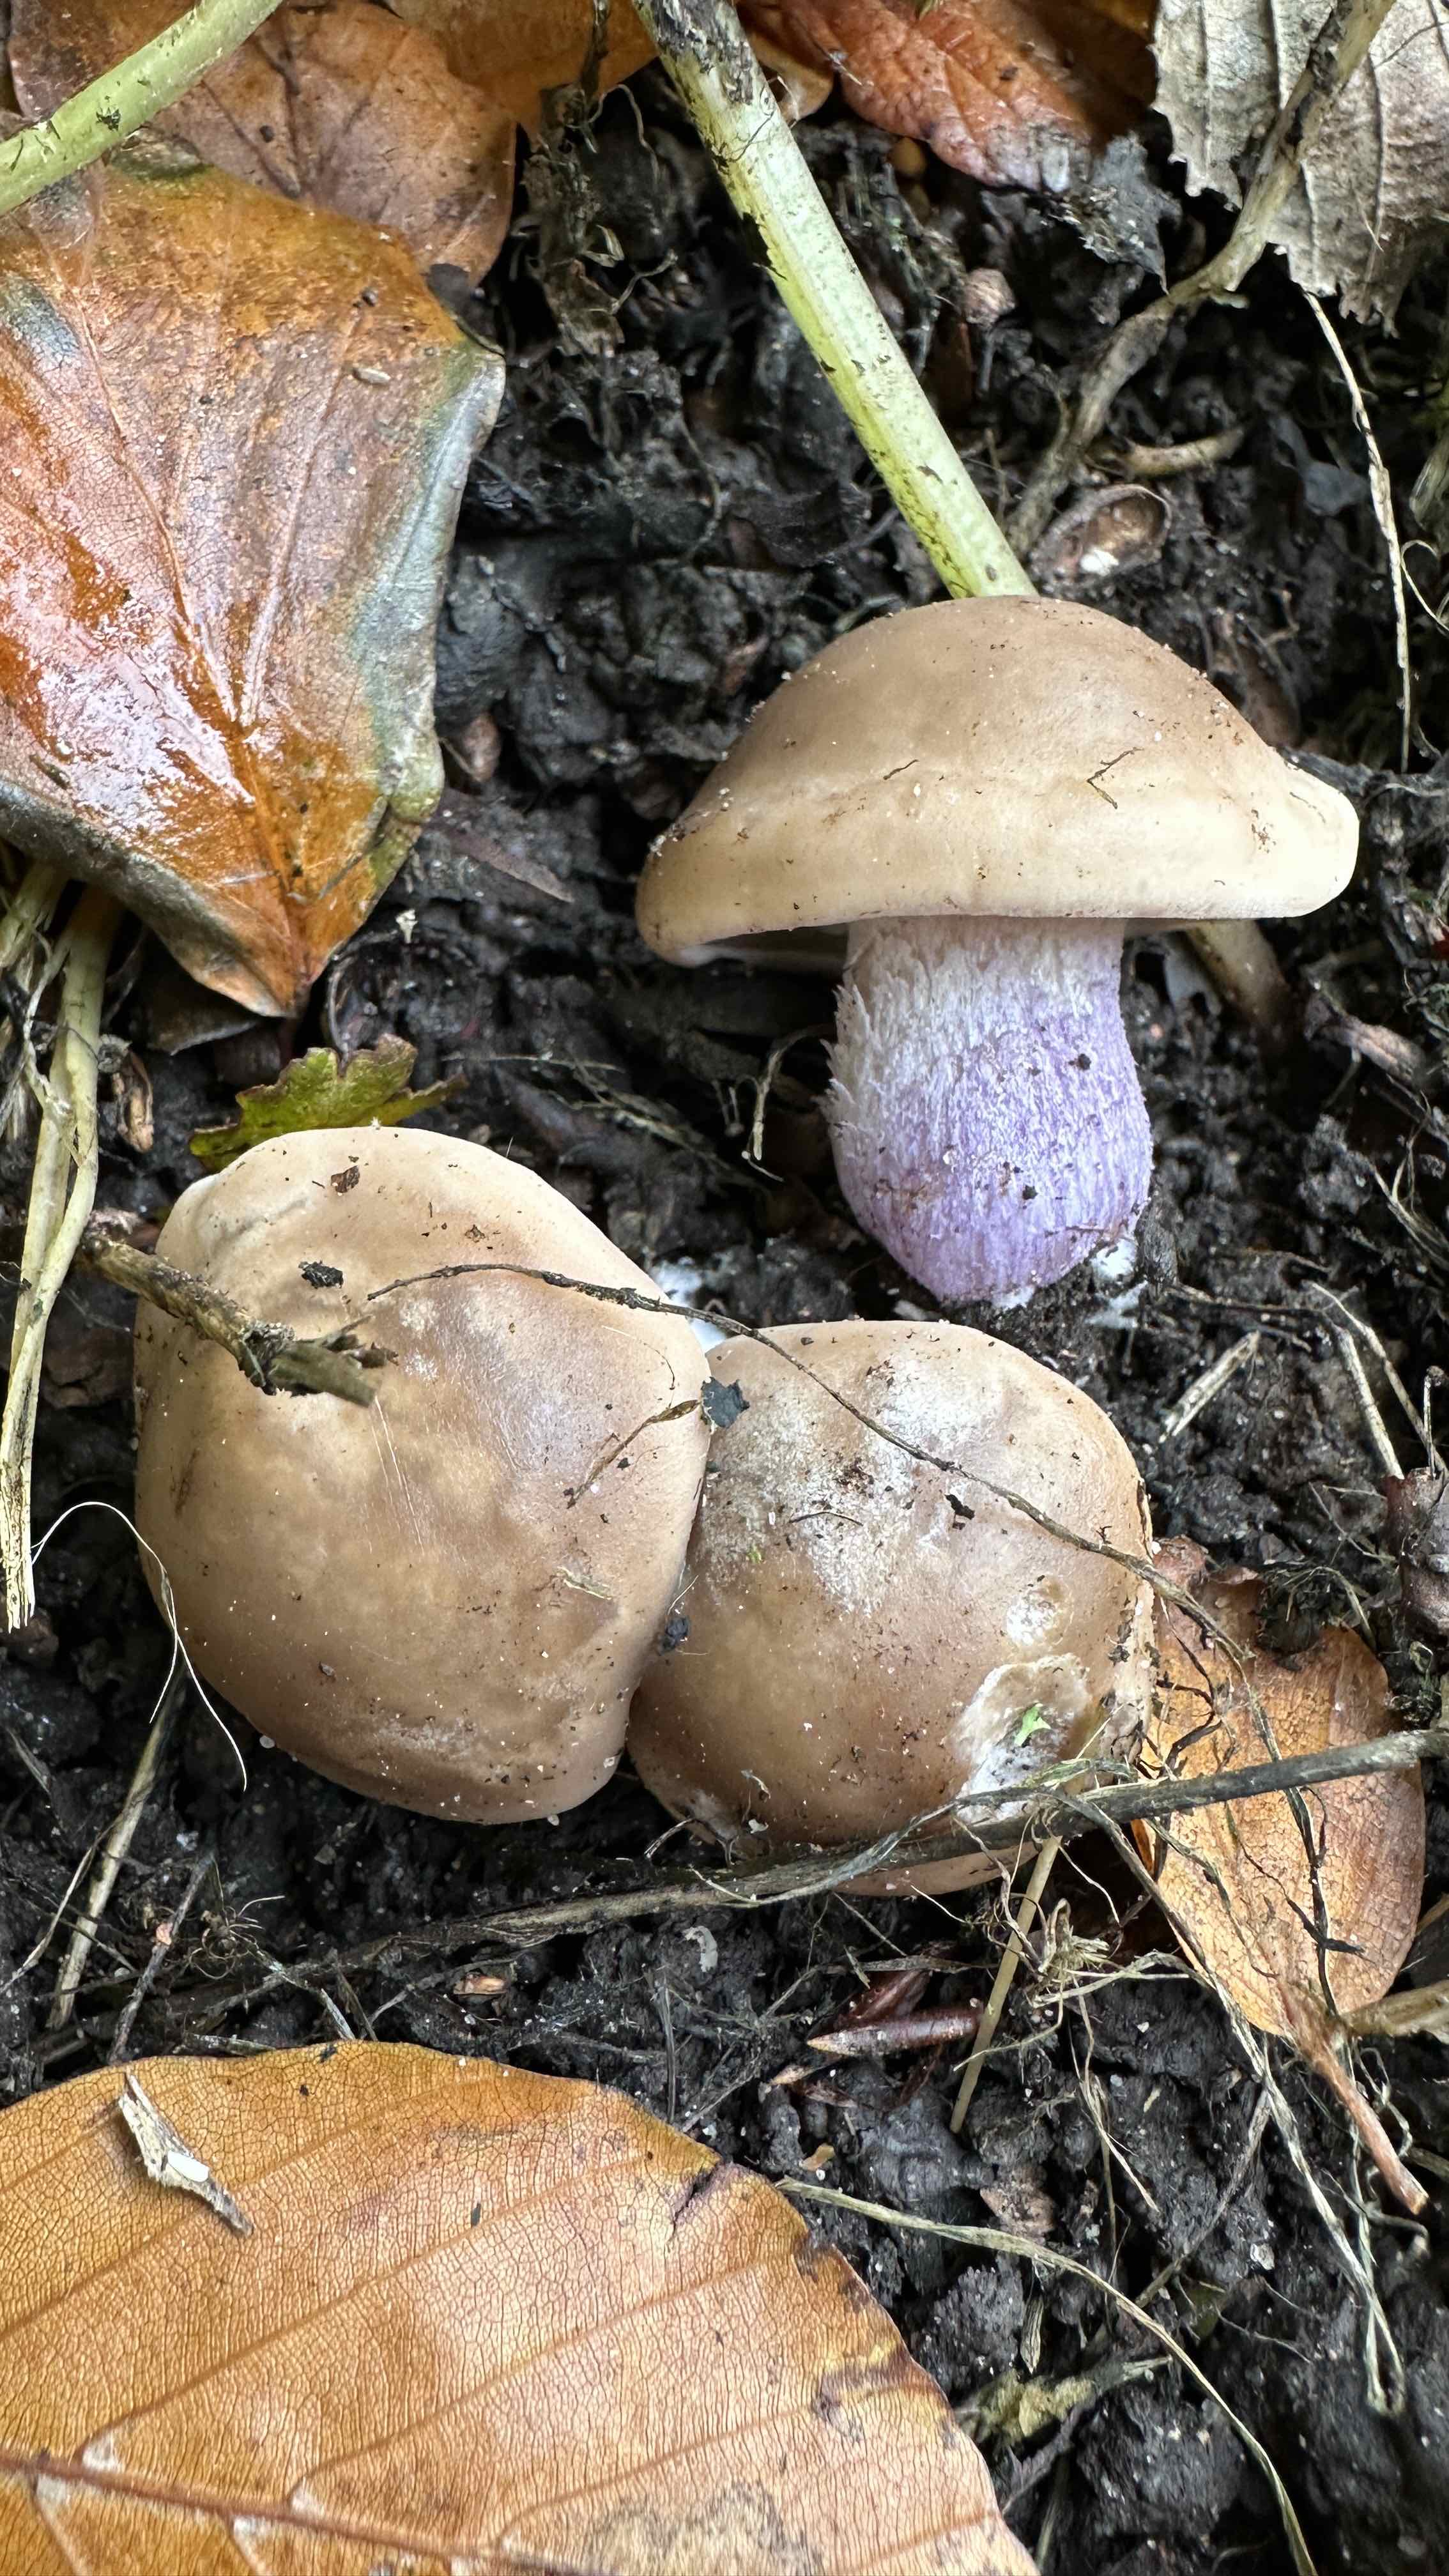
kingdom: Fungi
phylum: Basidiomycota
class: Agaricomycetes
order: Agaricales
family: Tricholomataceae
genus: Lepista
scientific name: Lepista personata
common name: bleg hekseringshat
